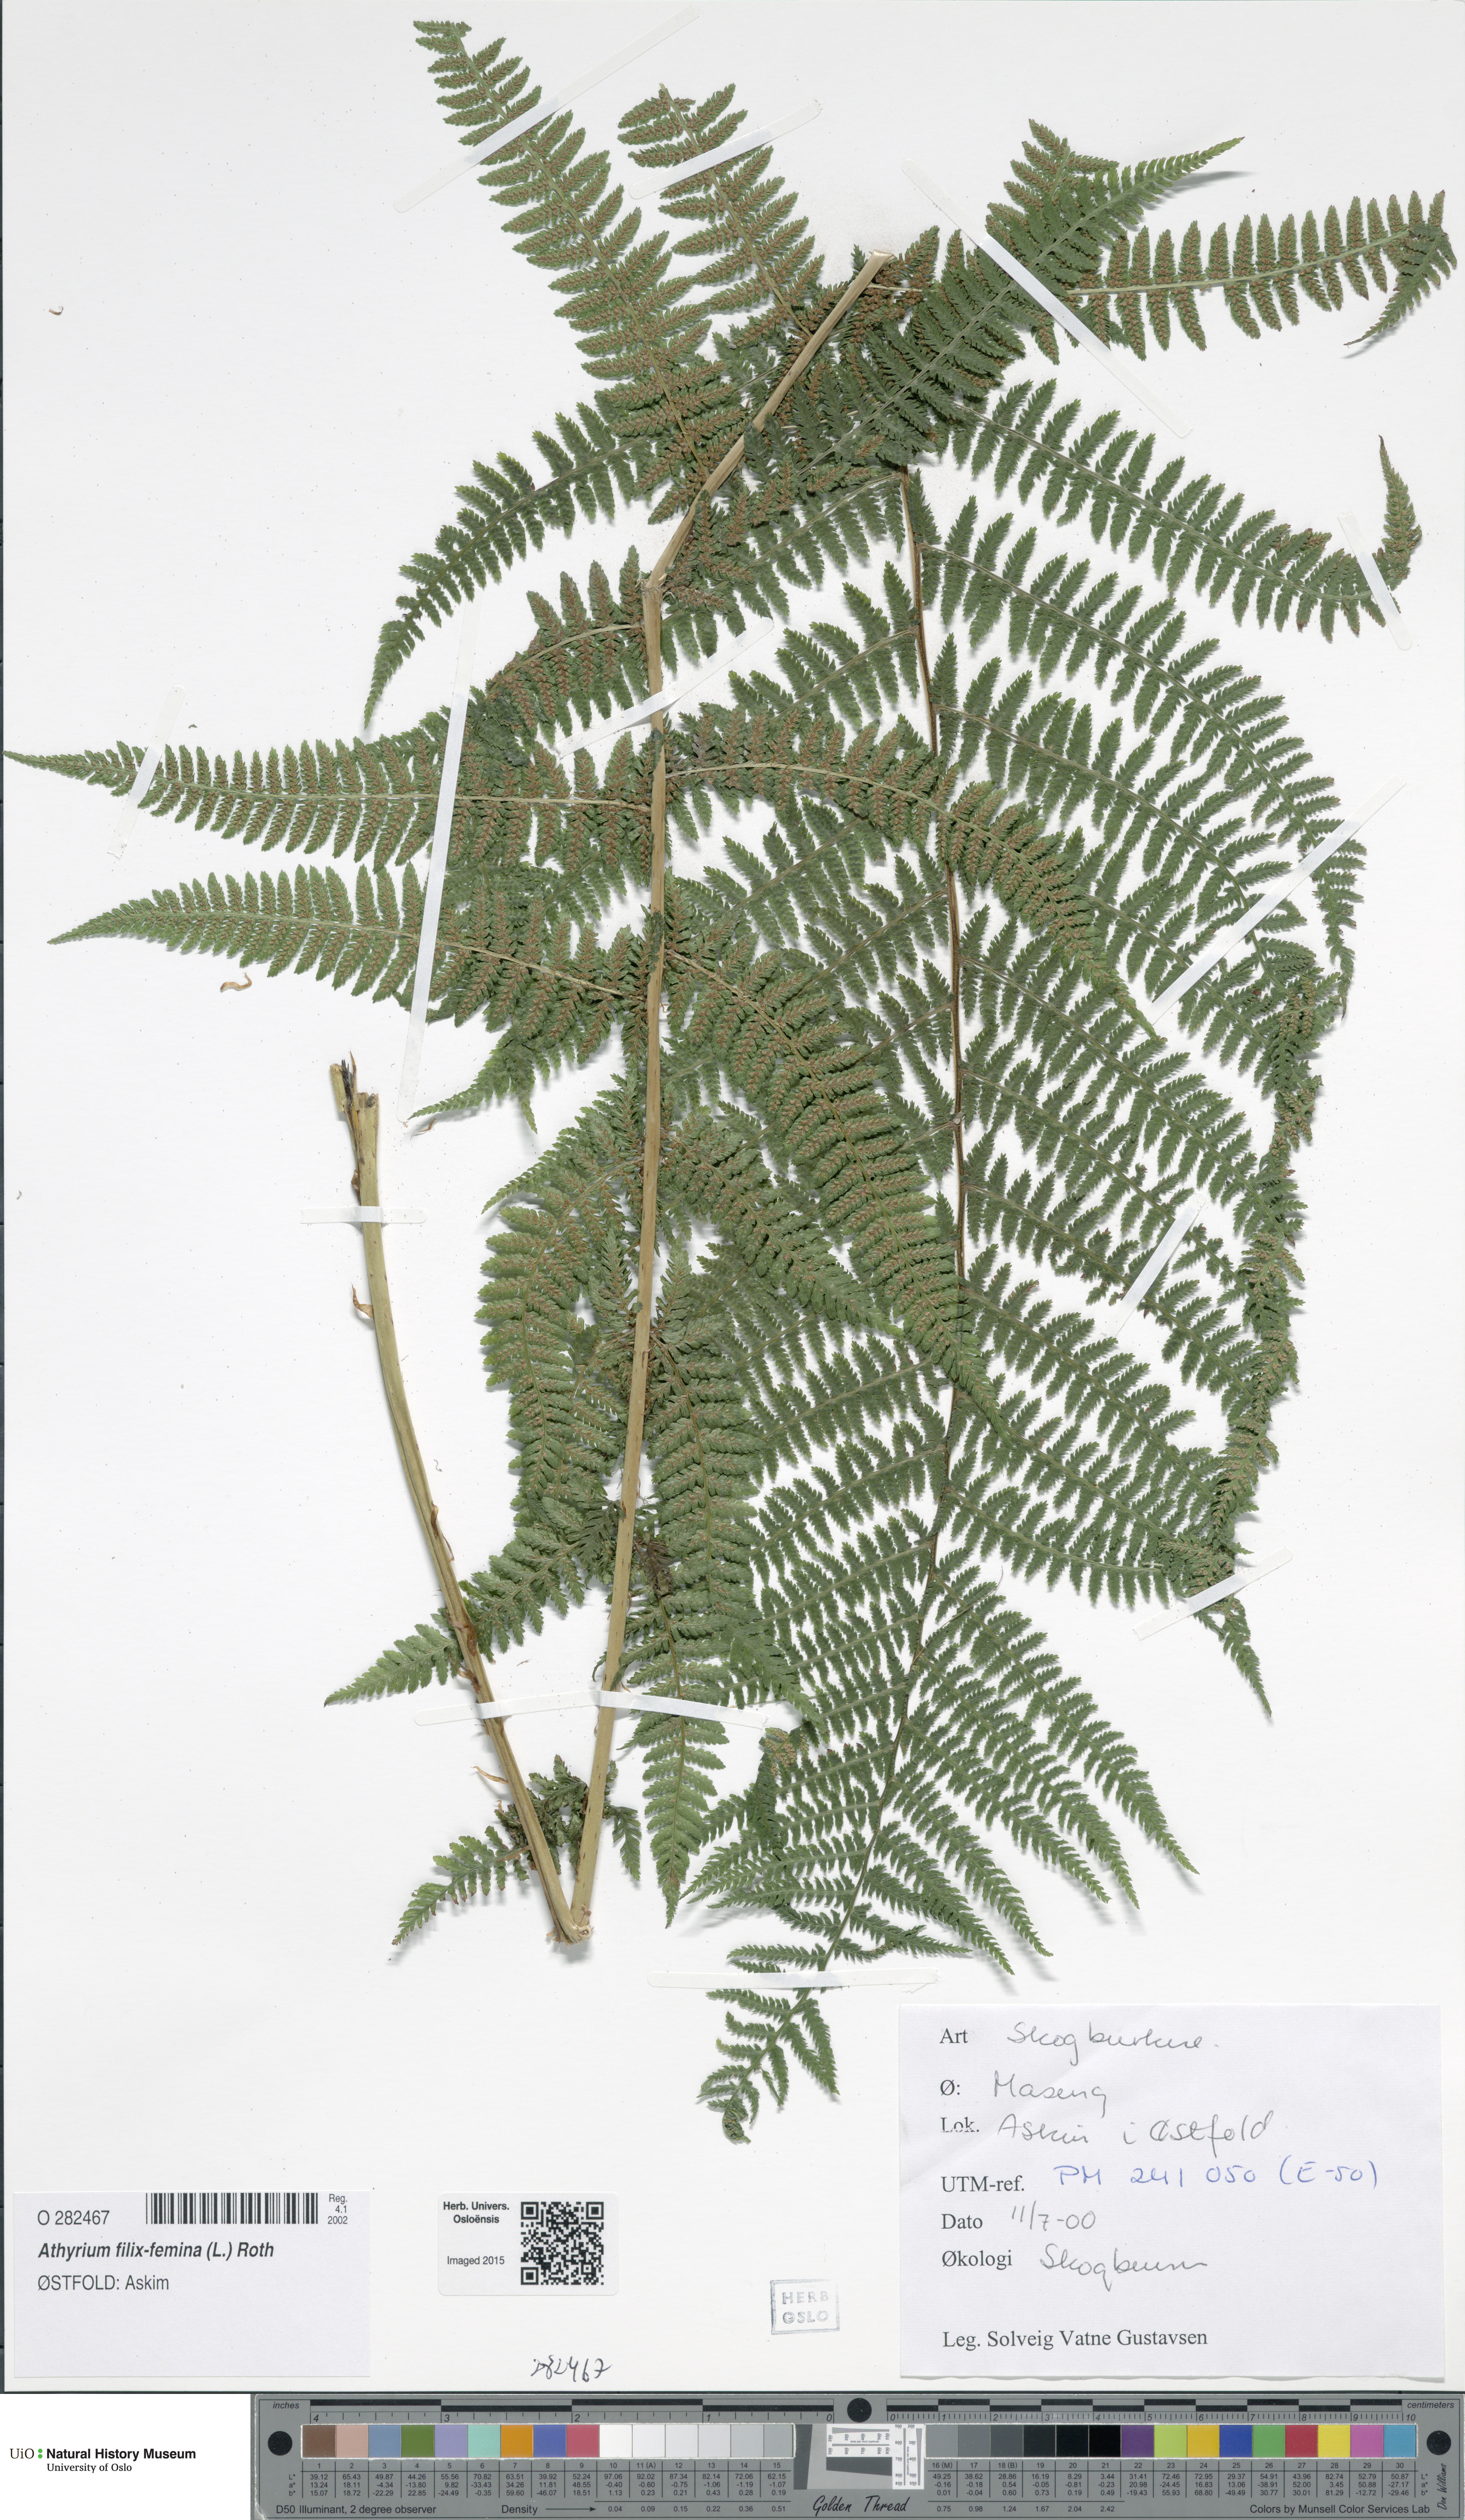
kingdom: Plantae
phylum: Tracheophyta
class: Polypodiopsida
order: Polypodiales
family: Athyriaceae
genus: Athyrium
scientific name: Athyrium filix-femina
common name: Lady fern
